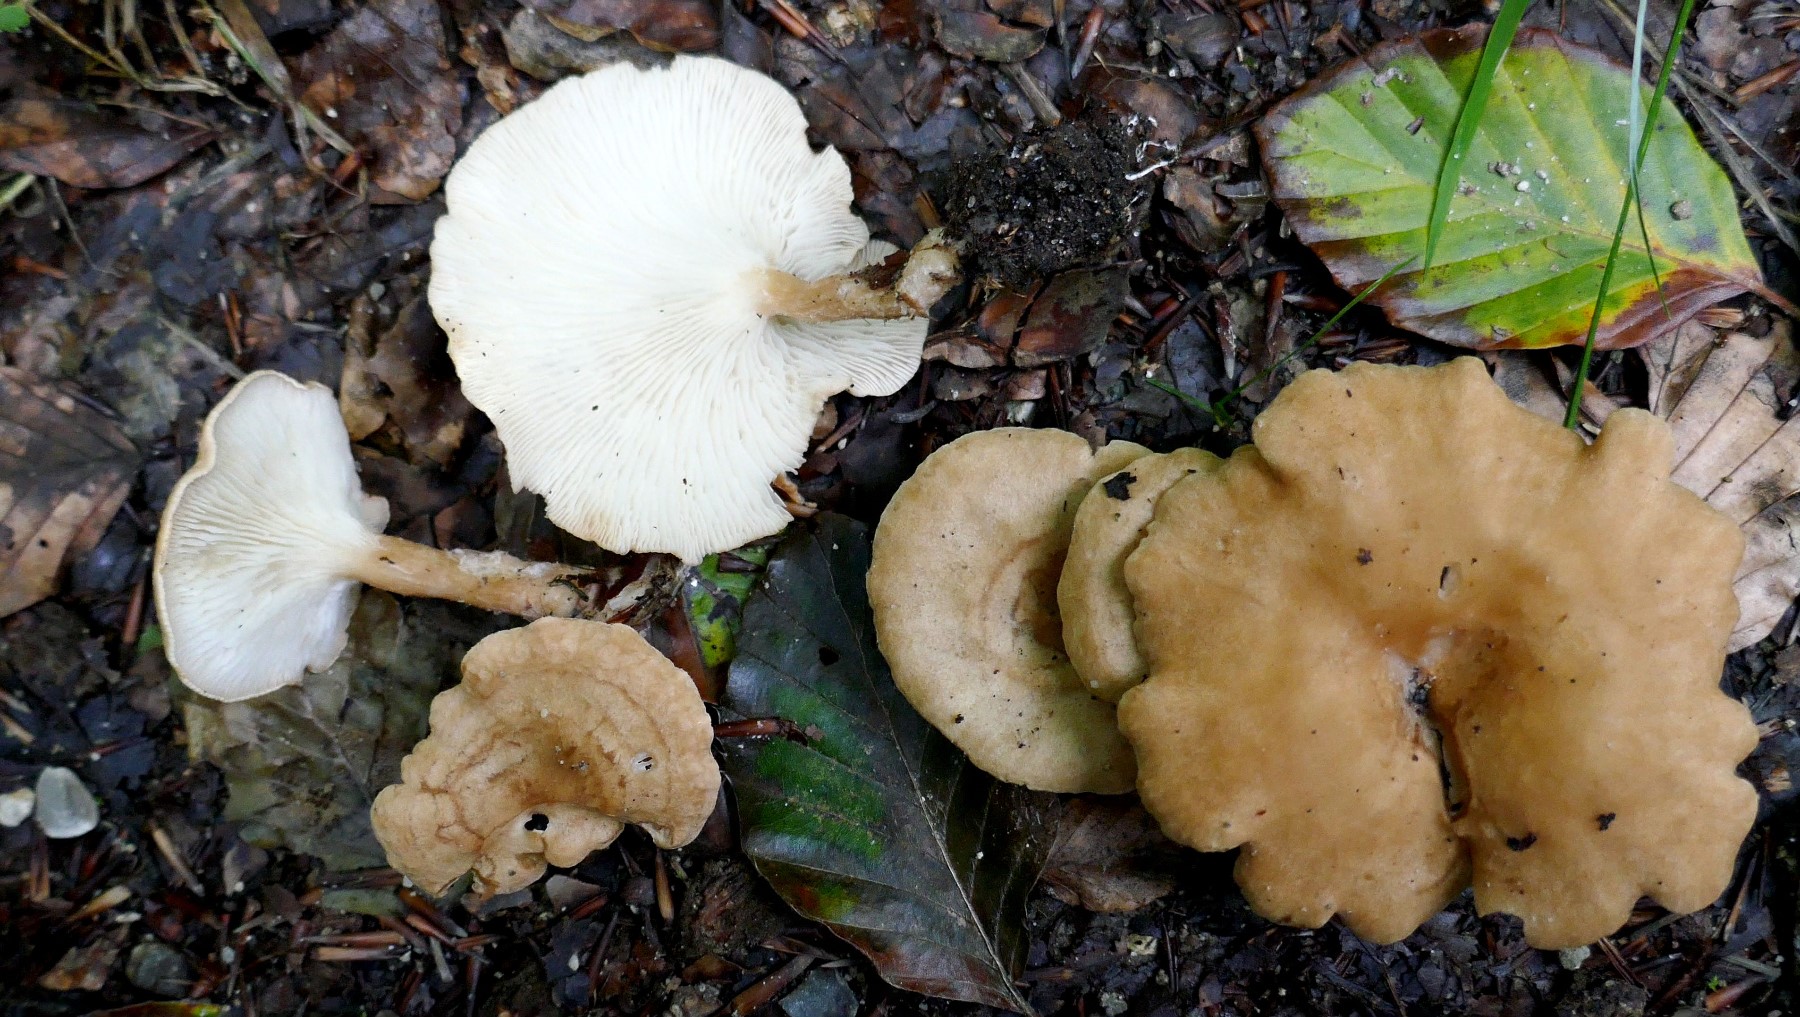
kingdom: Fungi
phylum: Basidiomycota
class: Agaricomycetes
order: Agaricales
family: Tricholomataceae
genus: Clitocybe
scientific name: Clitocybe costata
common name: brunstokket tragthat
